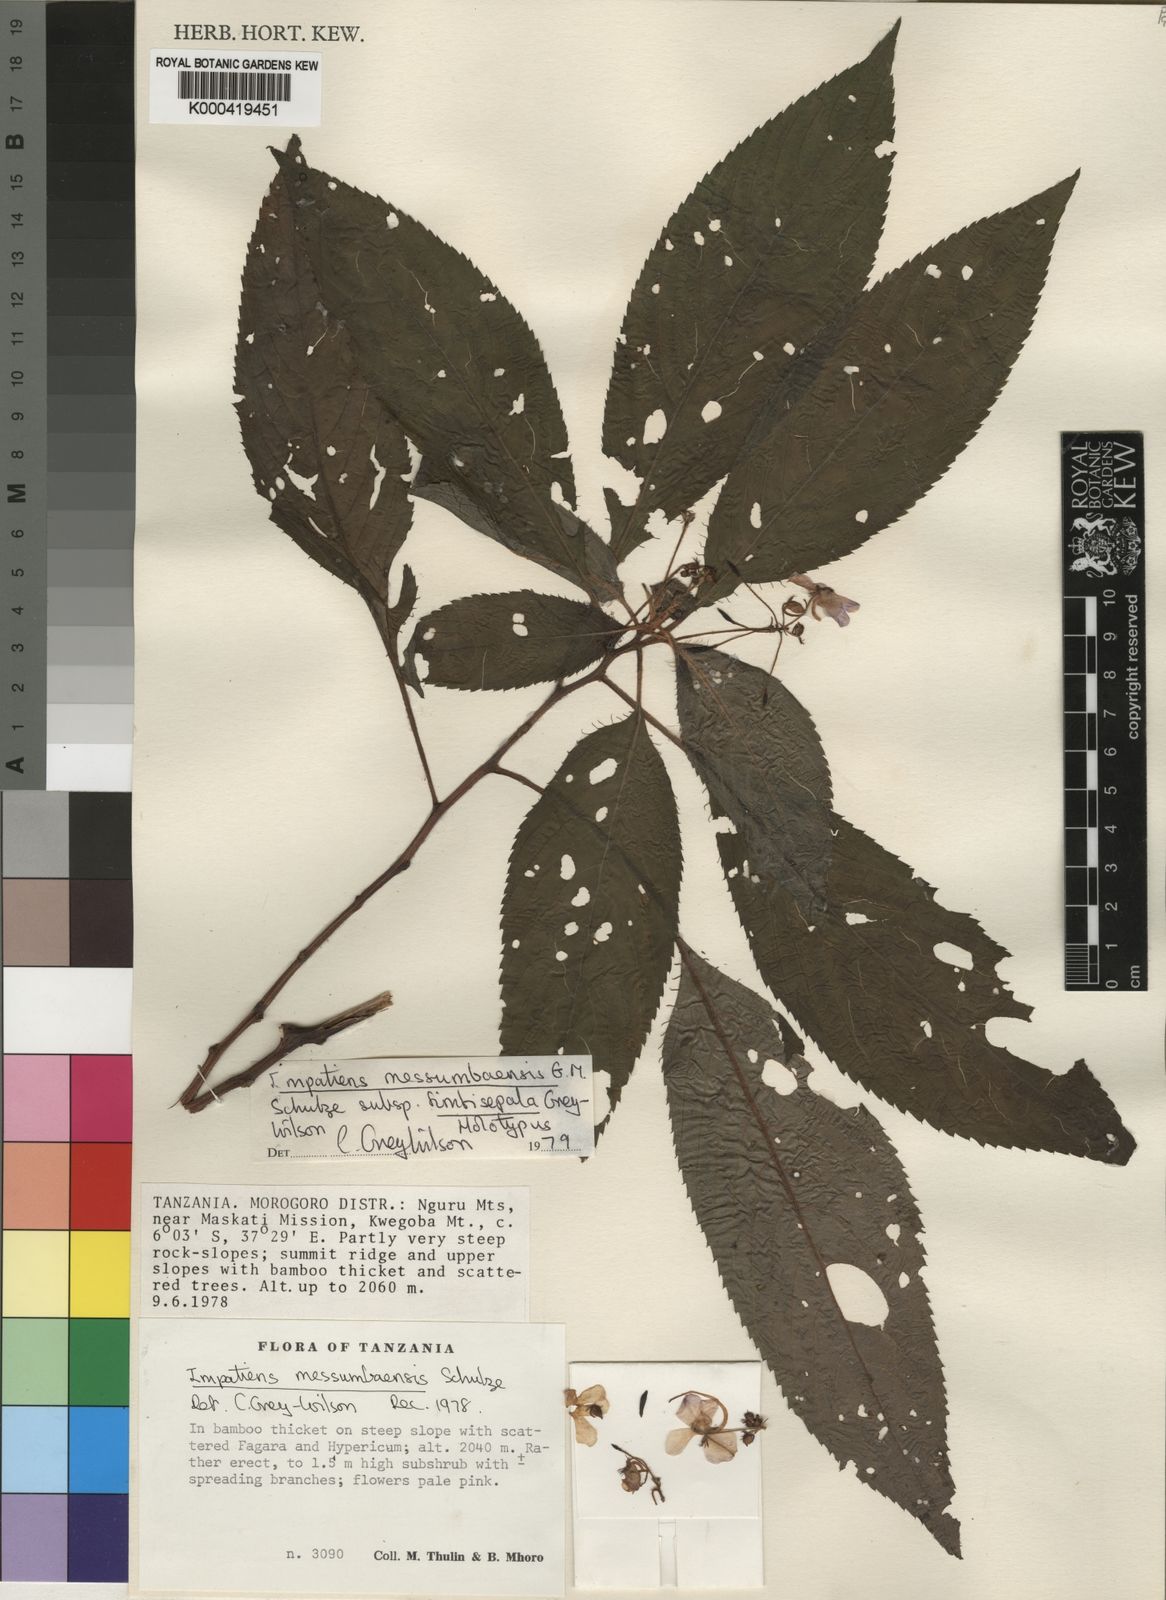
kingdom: Plantae
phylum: Tracheophyta
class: Magnoliopsida
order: Ericales
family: Balsaminaceae
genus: Impatiens
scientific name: Impatiens messumbaensis
